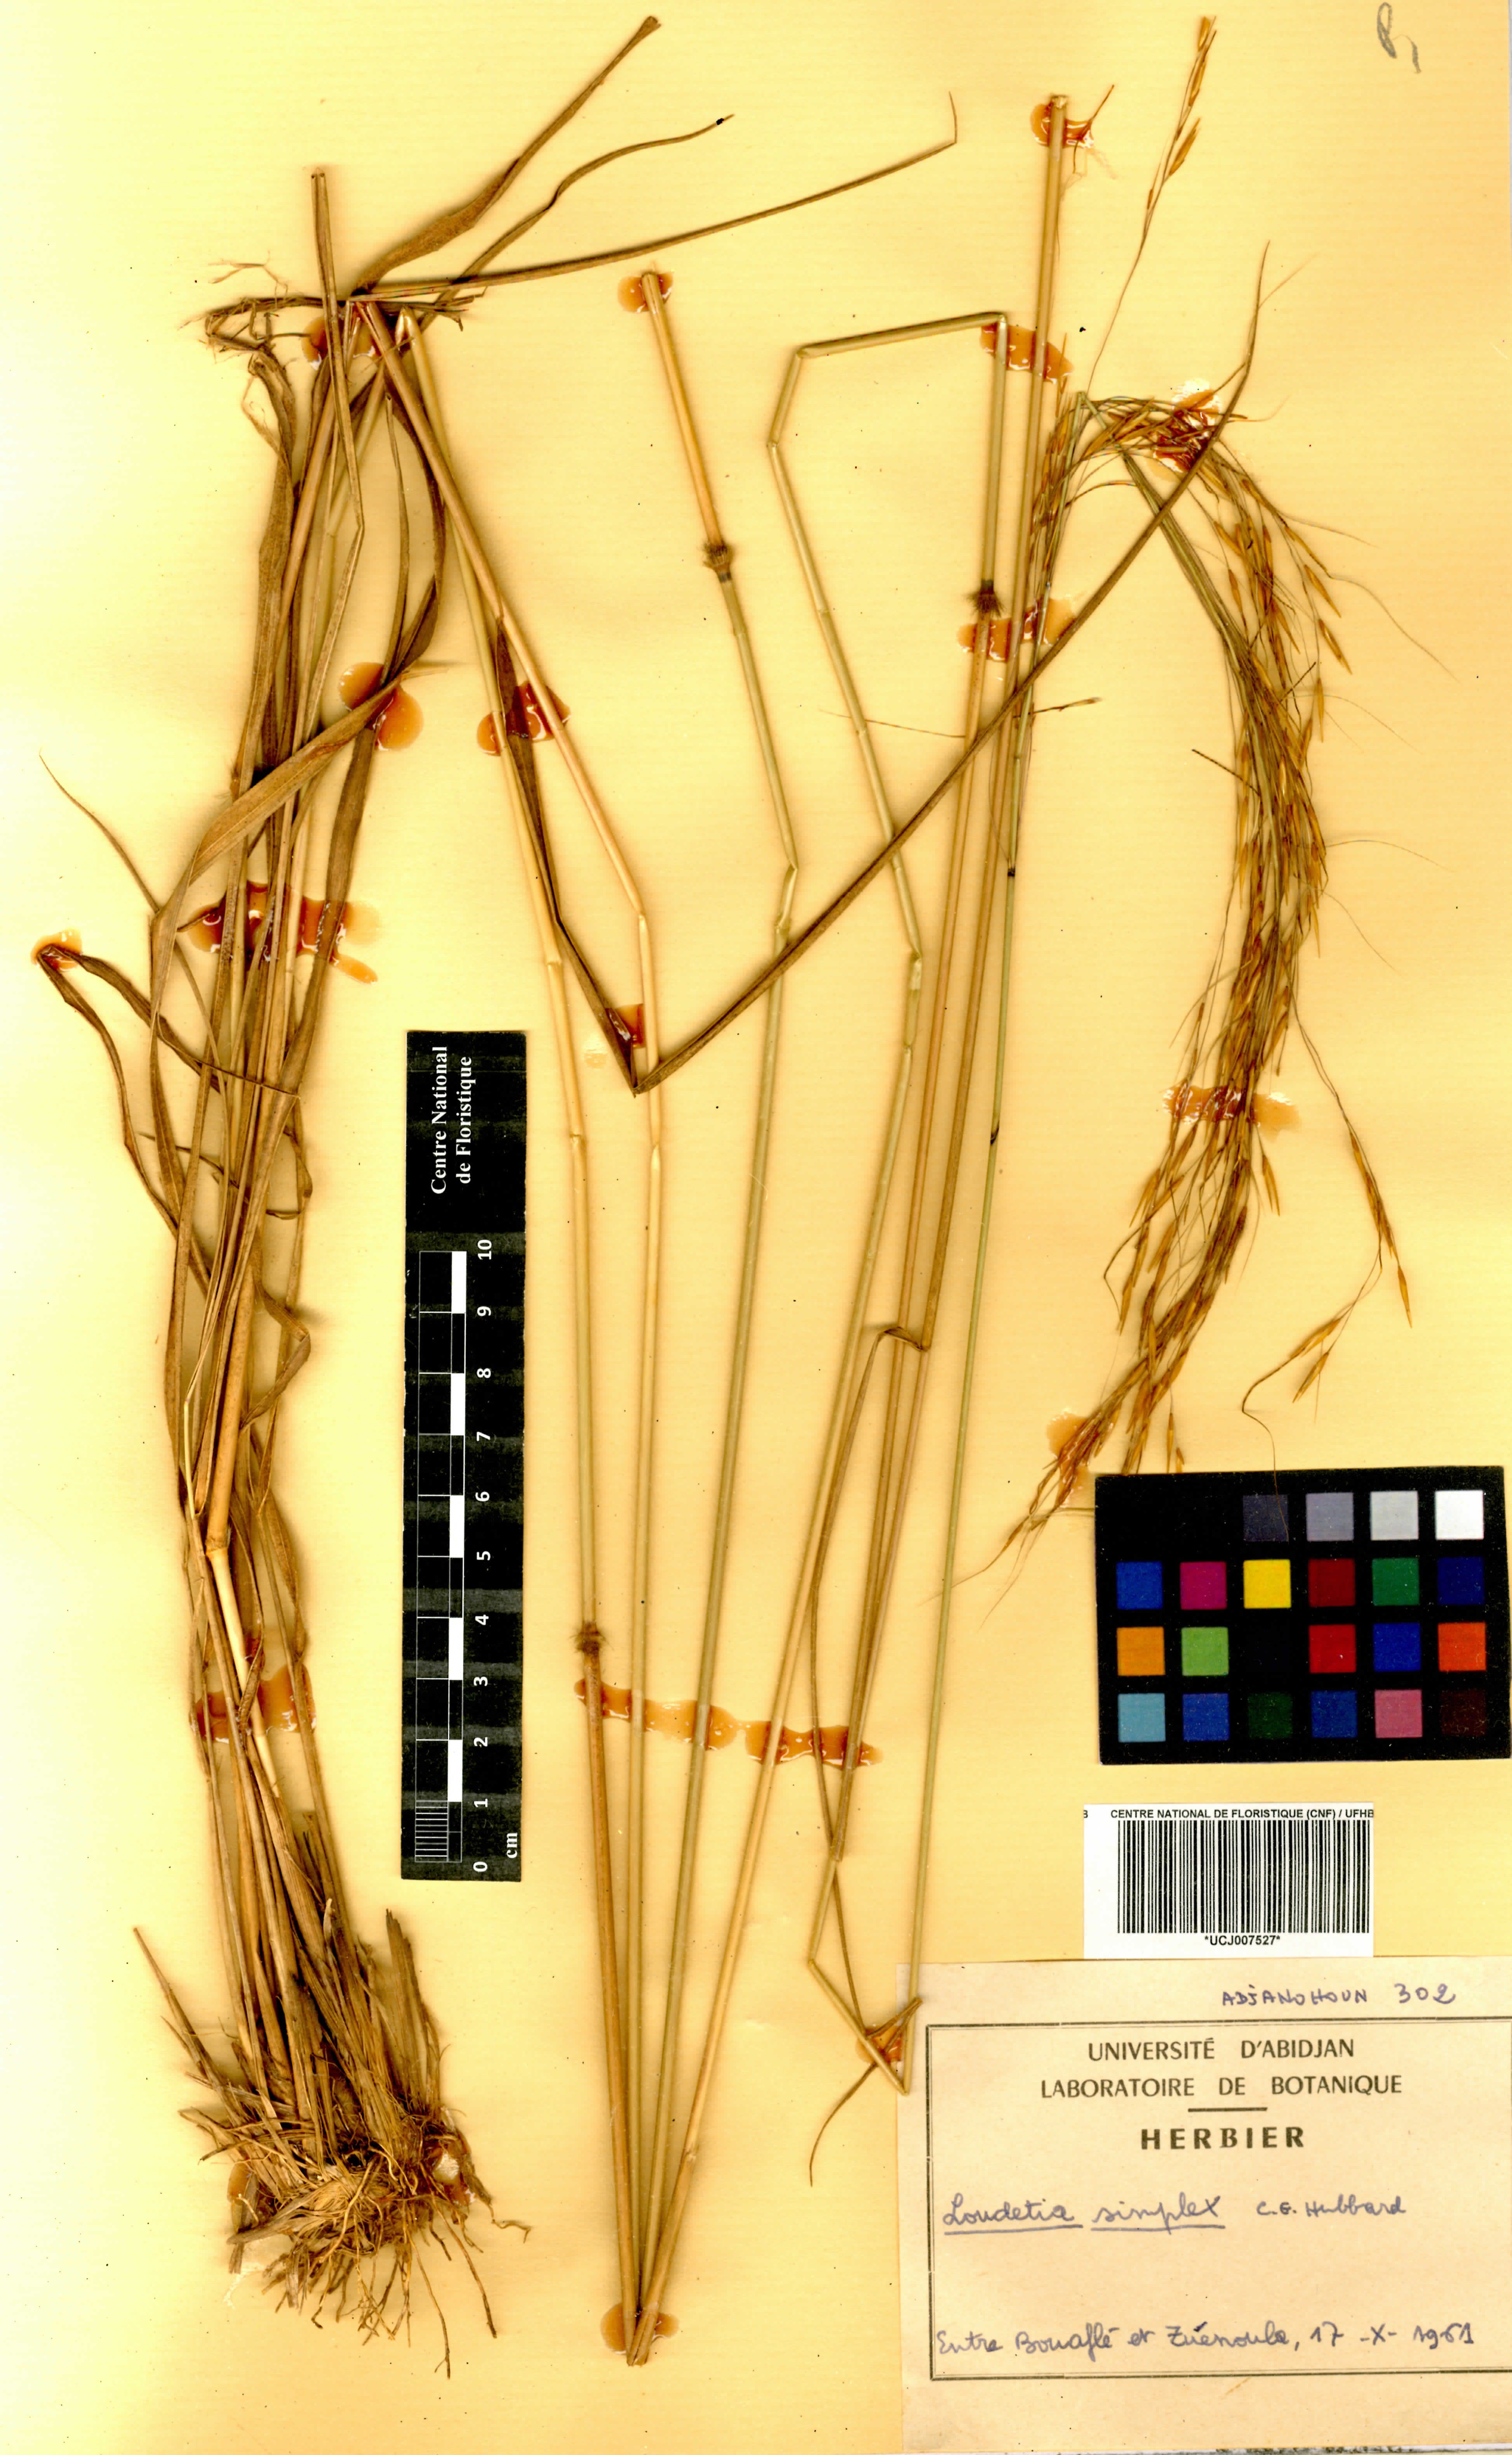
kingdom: Plantae
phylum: Tracheophyta
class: Liliopsida
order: Poales
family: Poaceae
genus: Loudetia
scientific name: Loudetia simplex
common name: Common russet grass
